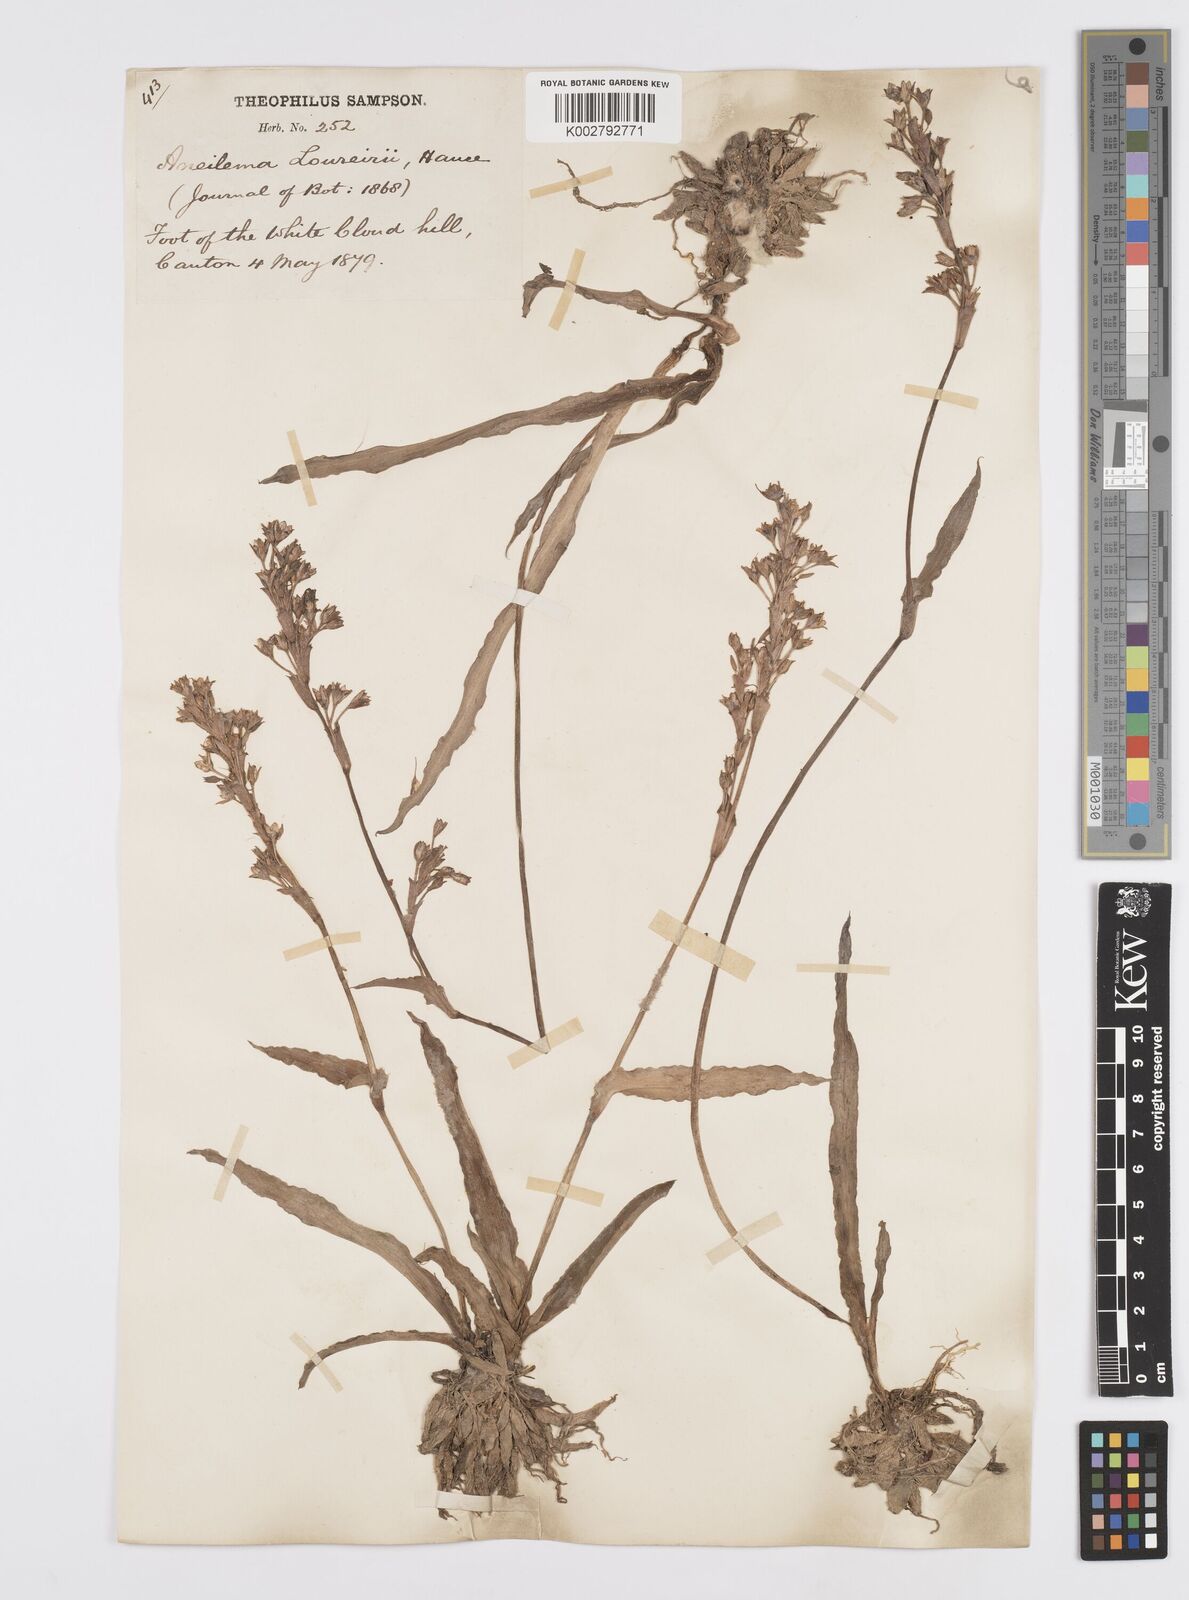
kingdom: Plantae
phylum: Tracheophyta
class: Liliopsida
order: Commelinales
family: Commelinaceae
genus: Murdannia
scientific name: Murdannia edulis
